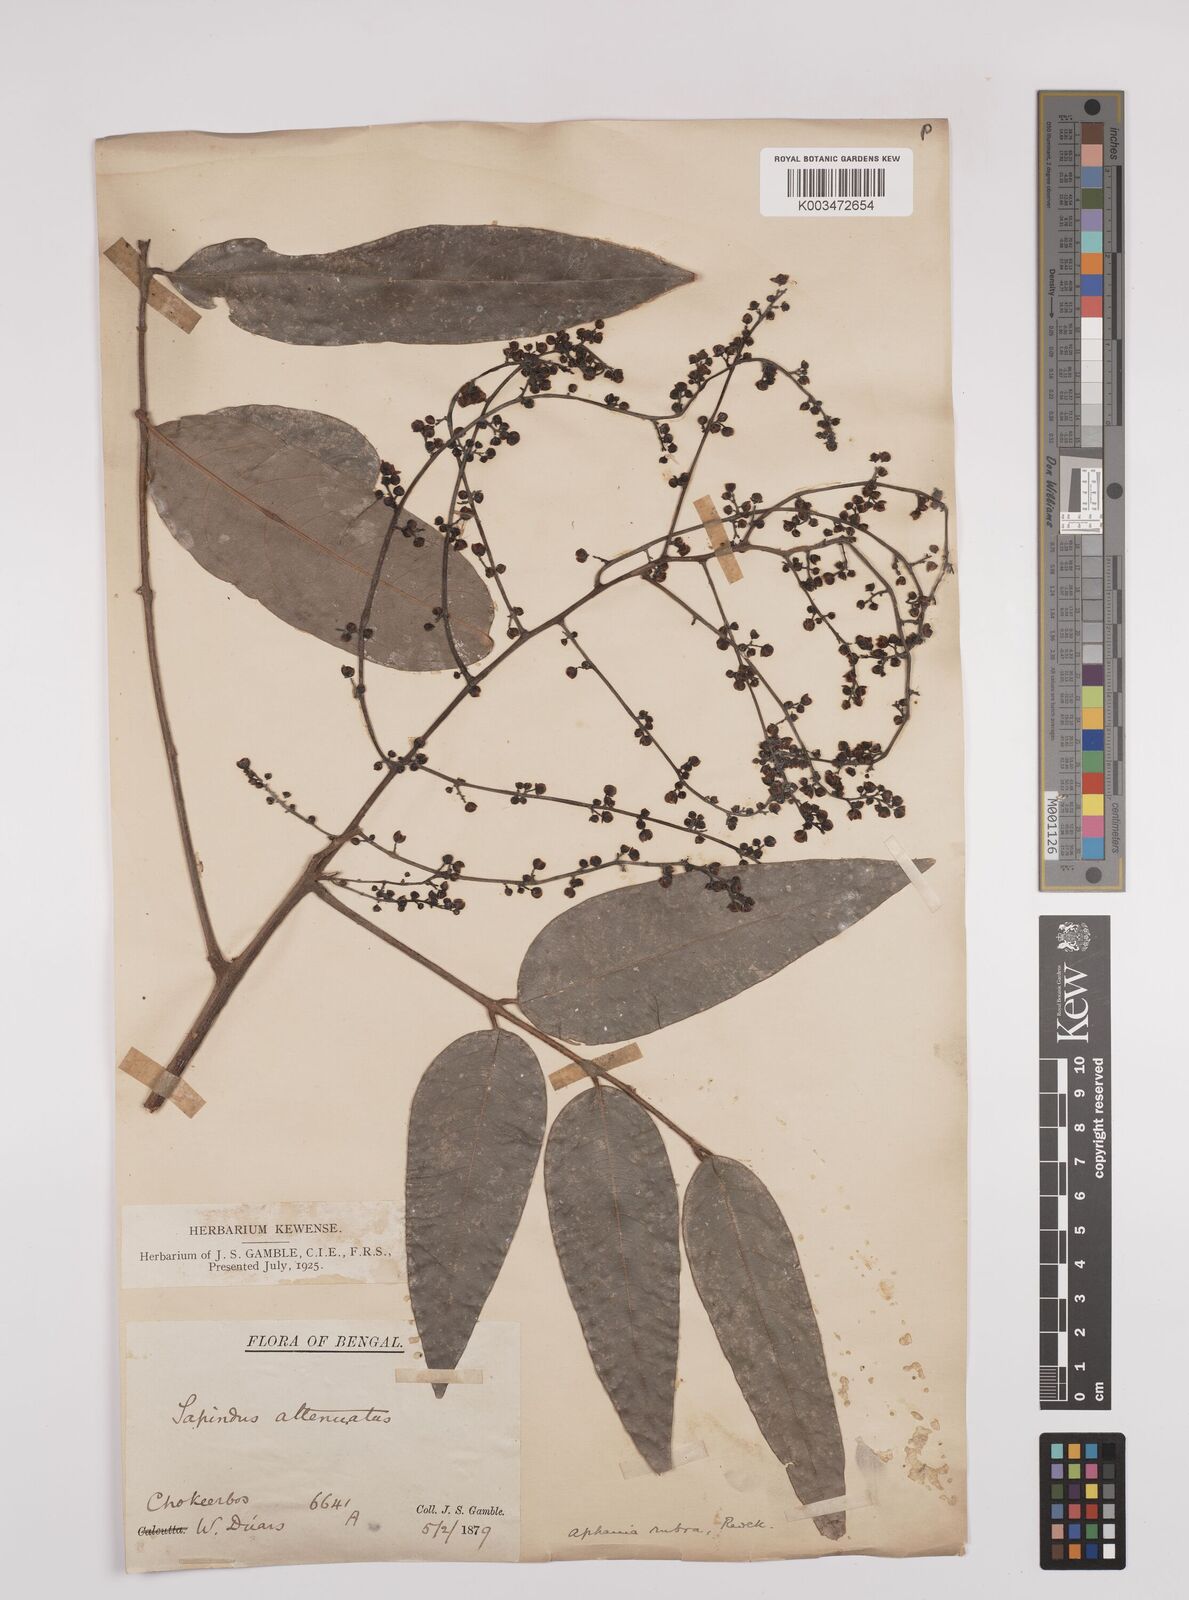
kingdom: Plantae
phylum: Tracheophyta
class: Magnoliopsida
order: Sapindales
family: Sapindaceae
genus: Lepisanthes
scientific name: Lepisanthes senegalensis
